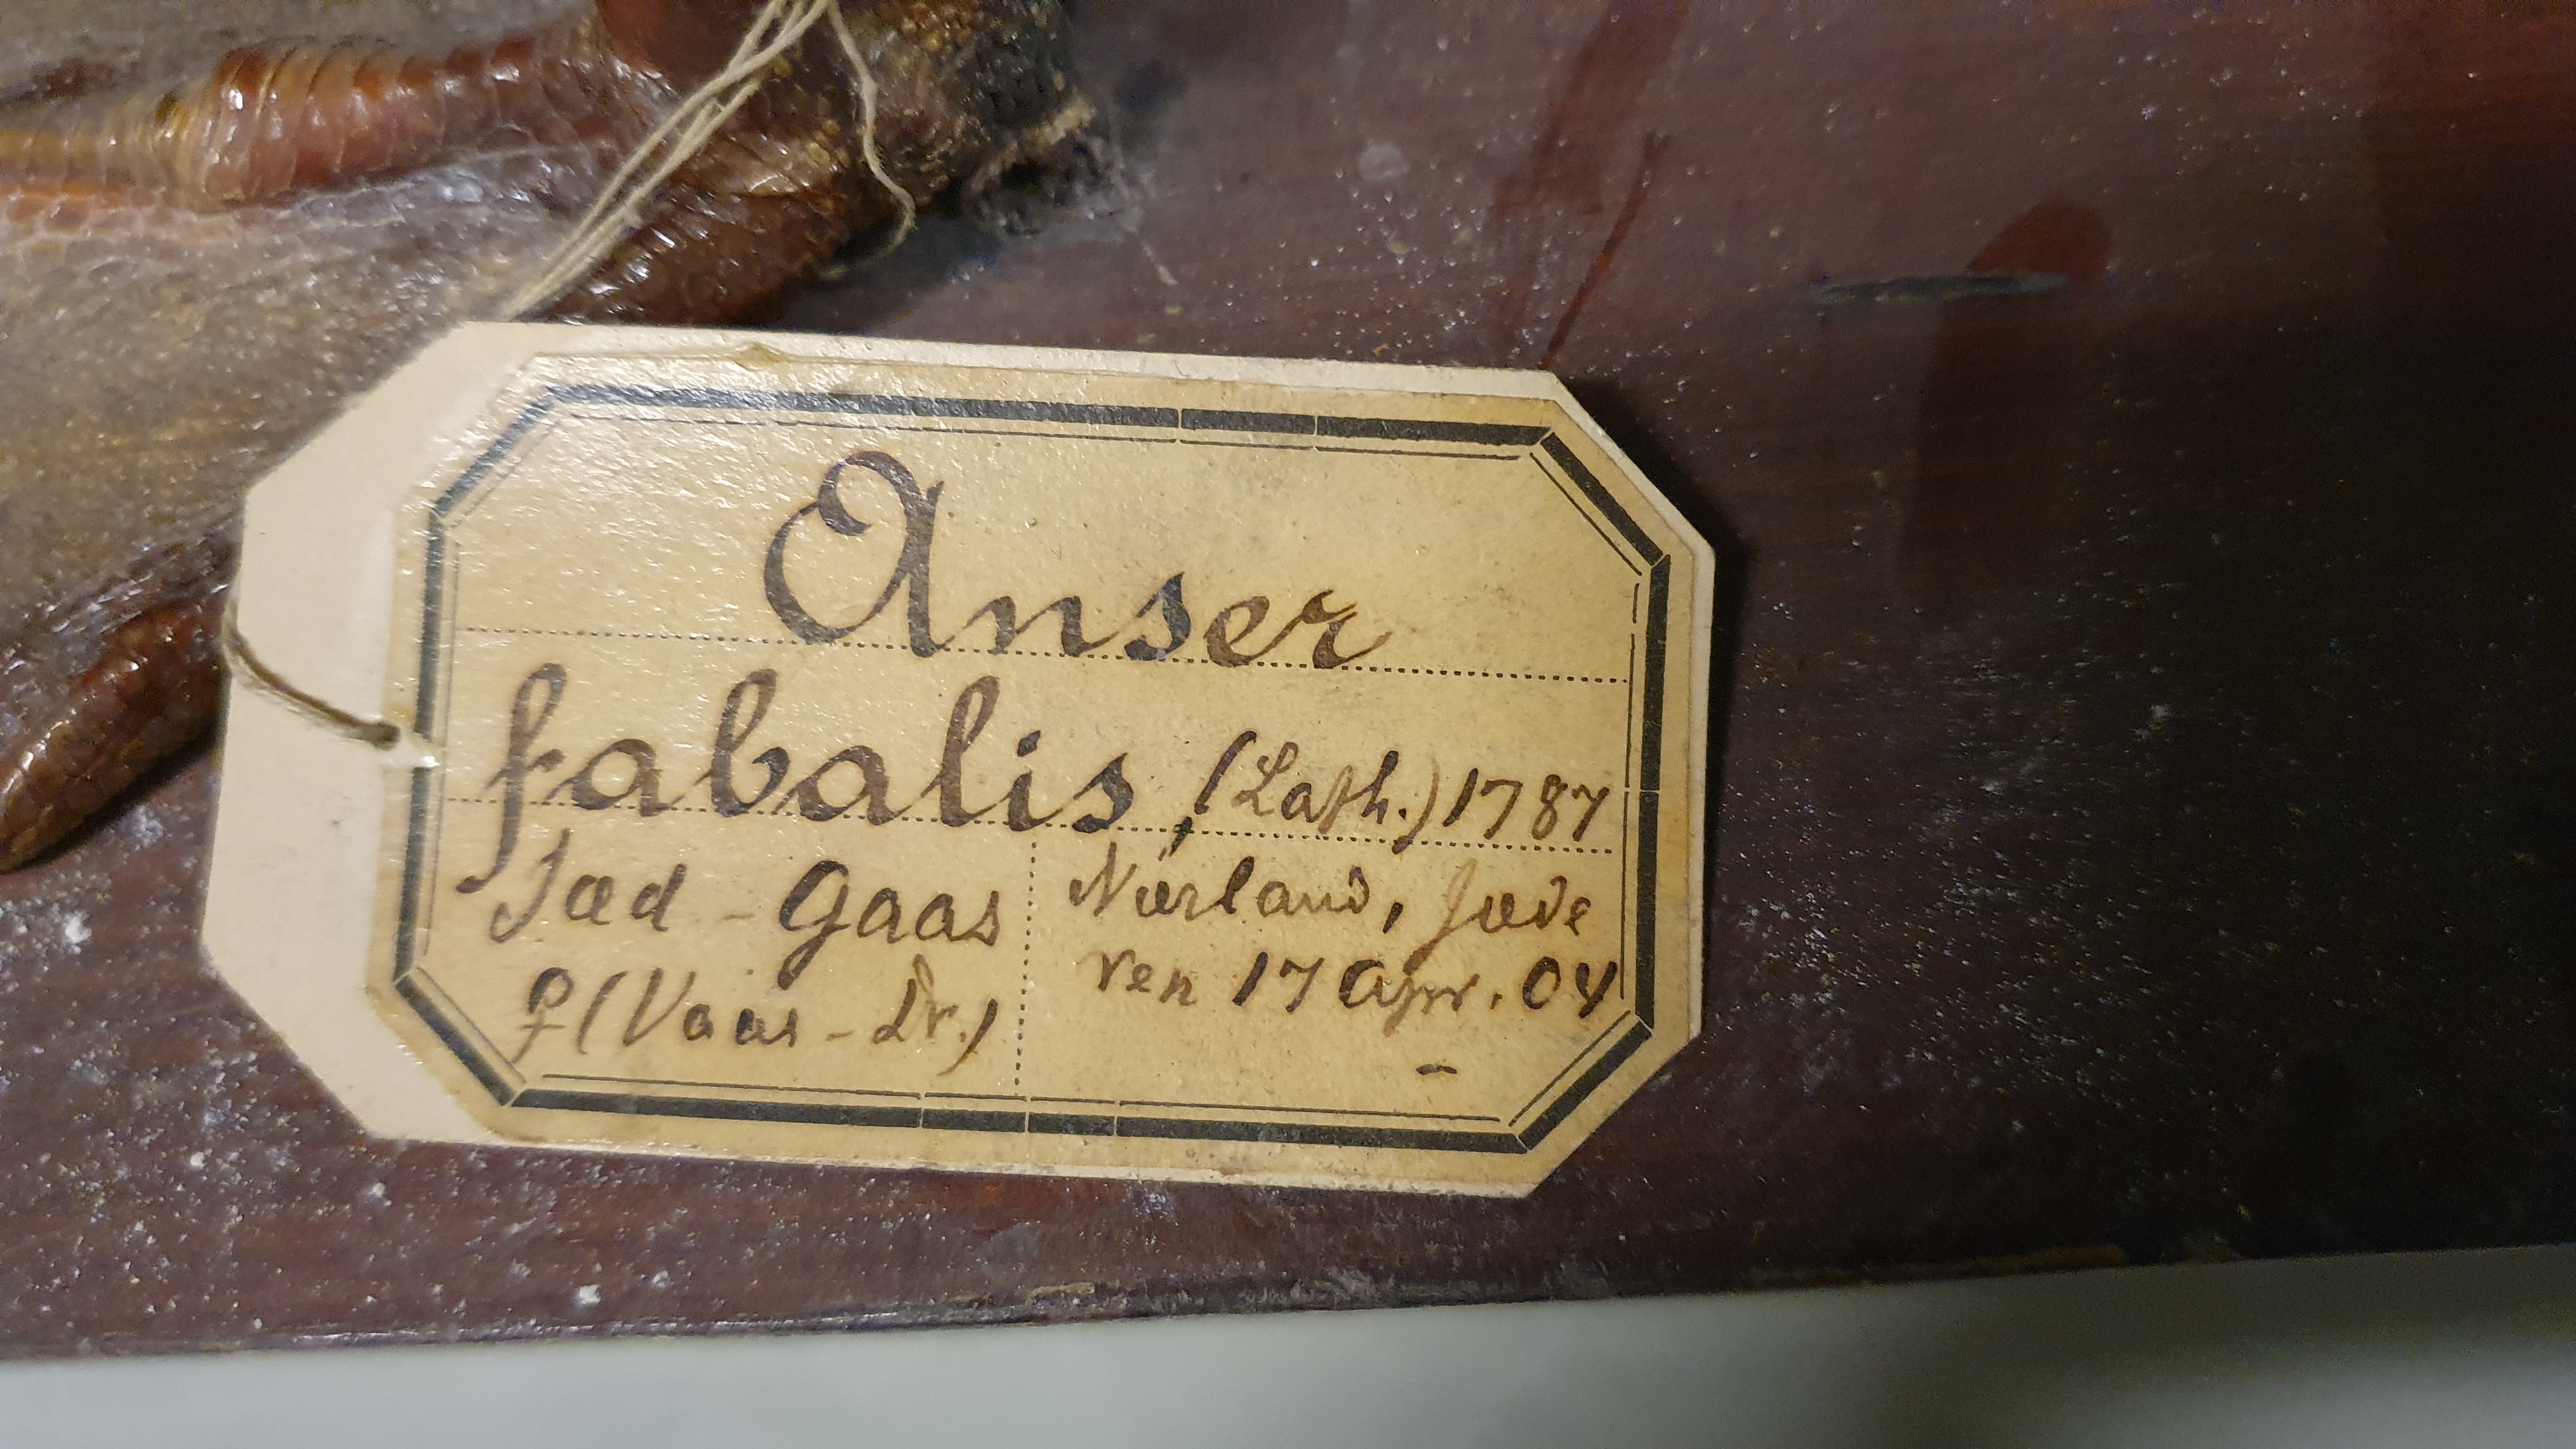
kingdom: Animalia
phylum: Chordata
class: Aves
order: Anseriformes
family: Anatidae
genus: Anser
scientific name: Anser fabalis
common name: Bean goose
